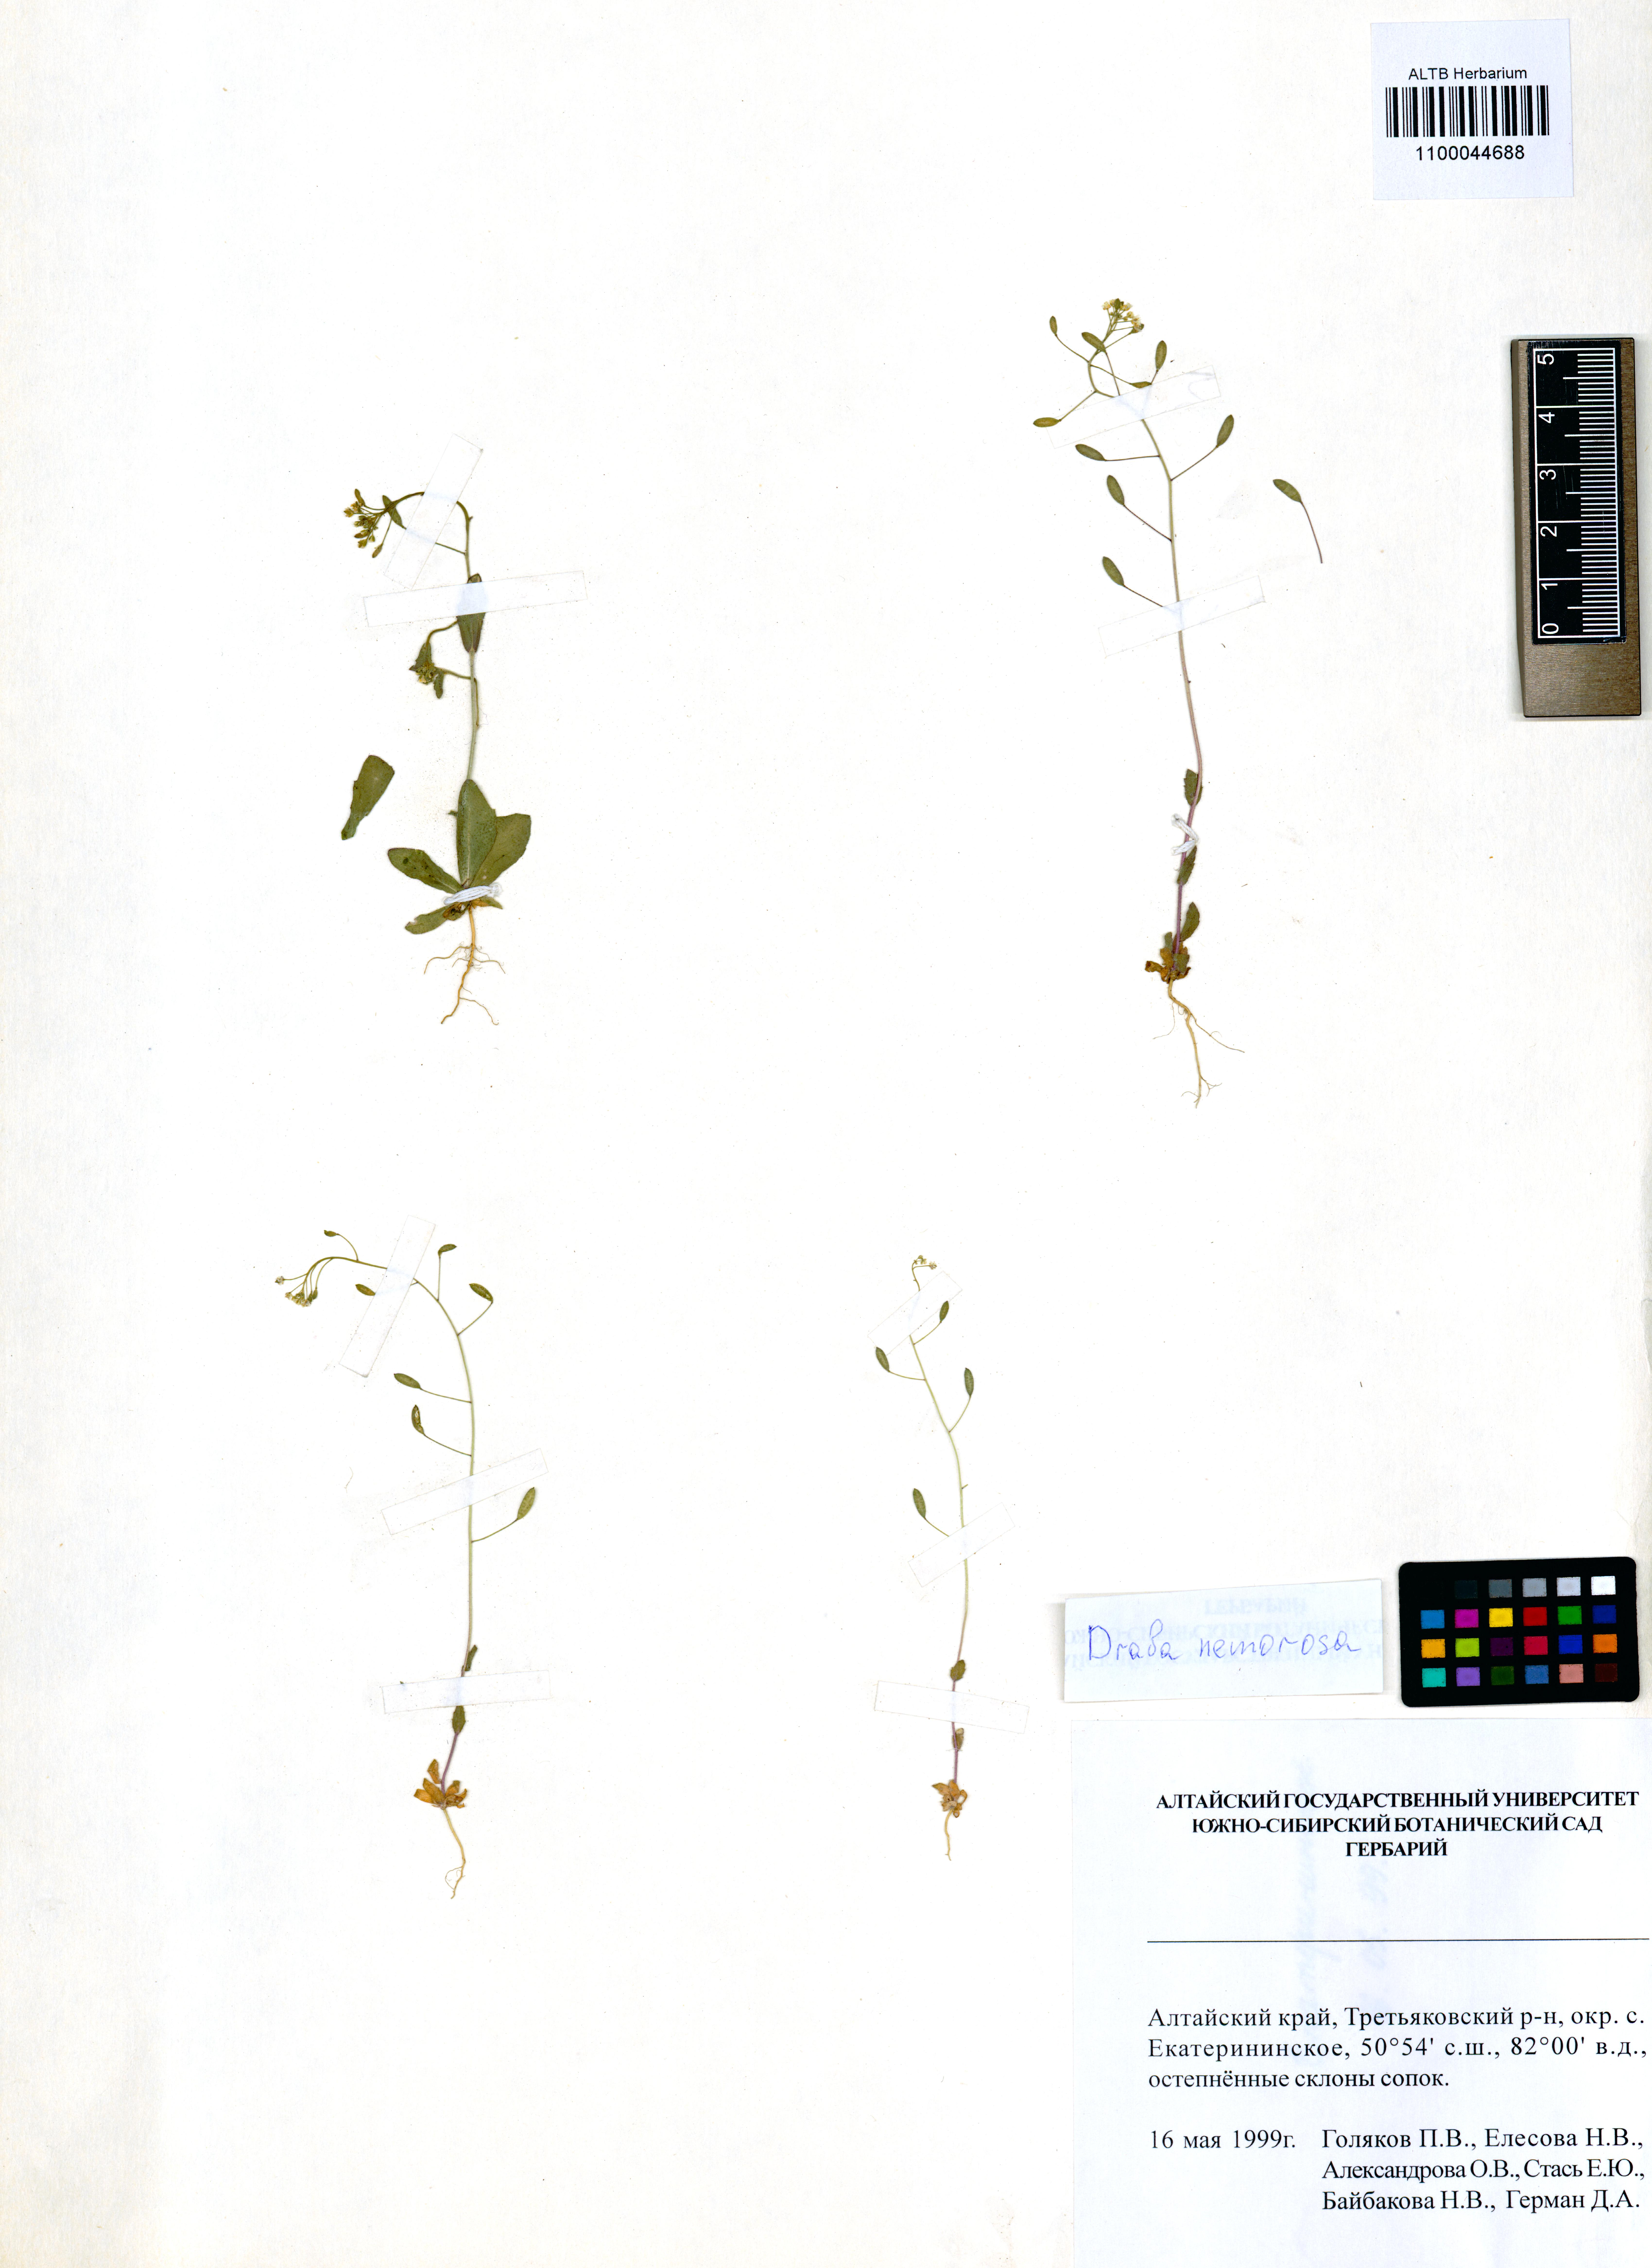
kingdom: Plantae
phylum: Tracheophyta
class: Magnoliopsida
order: Brassicales
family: Brassicaceae
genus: Draba
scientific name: Draba nemorosa
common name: Wood whitlow-grass
